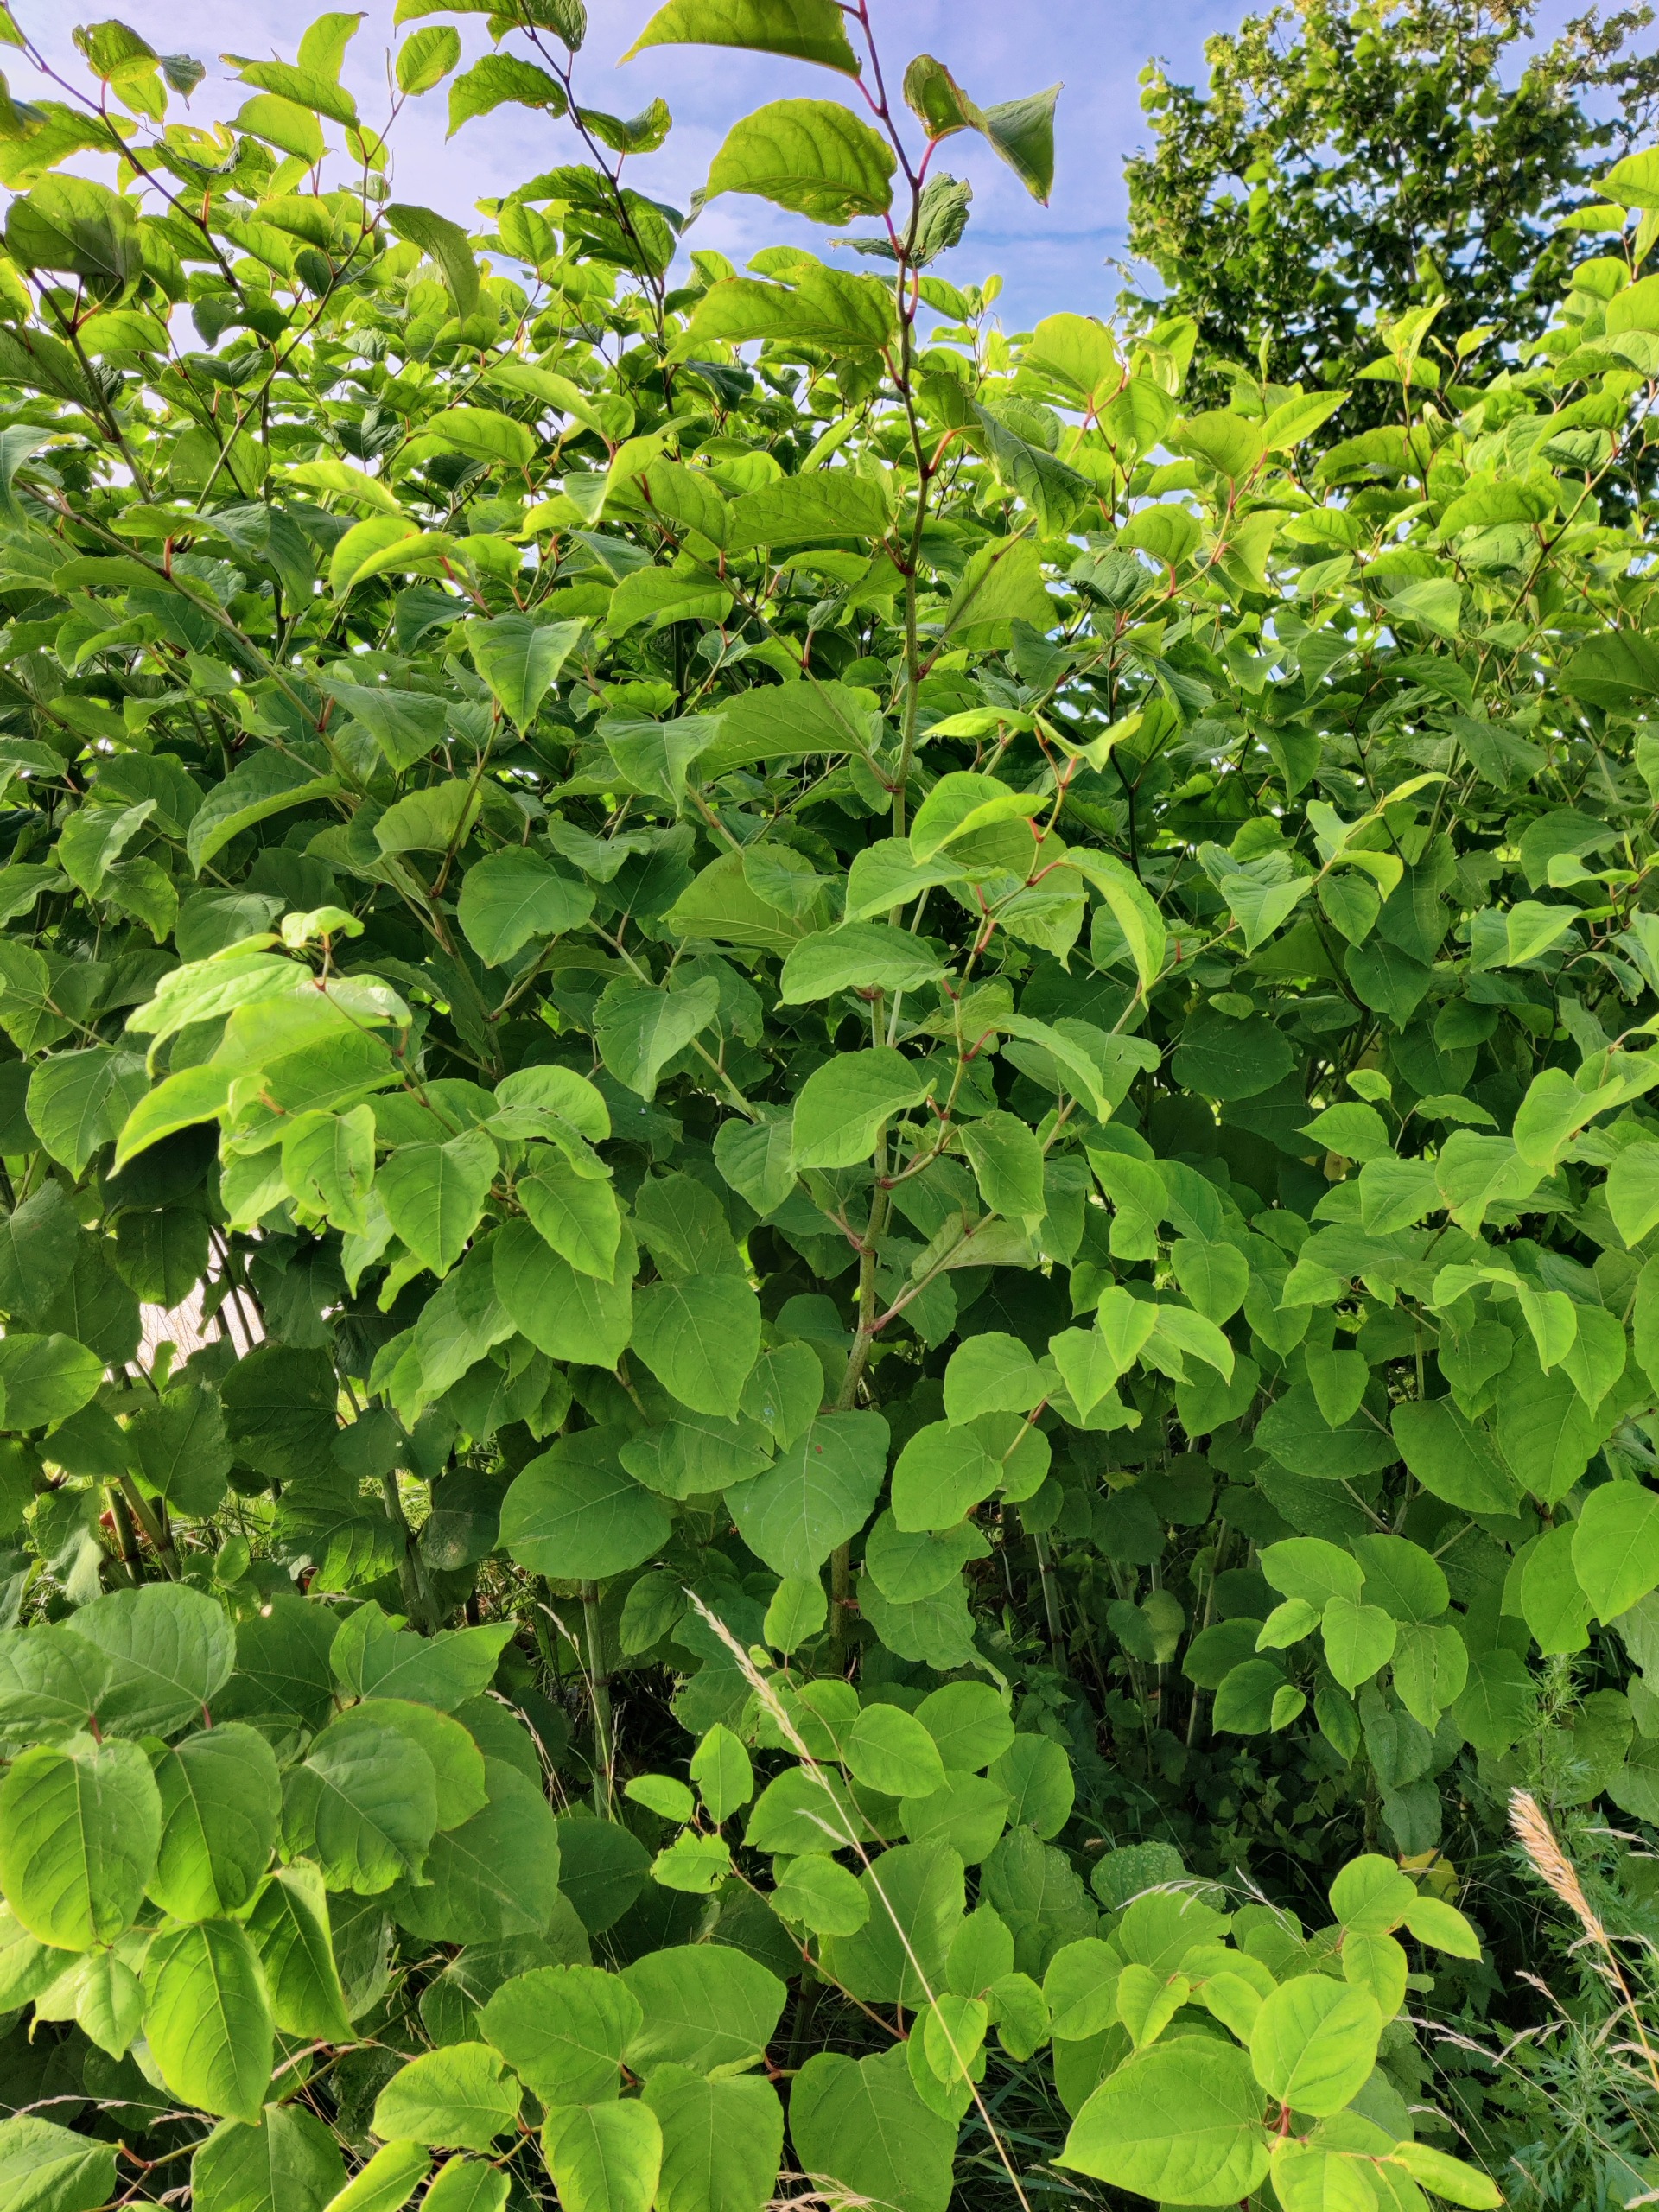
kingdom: Plantae
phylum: Tracheophyta
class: Magnoliopsida
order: Caryophyllales
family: Polygonaceae
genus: Reynoutria
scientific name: Reynoutria japonica
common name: Japan-pileurt
